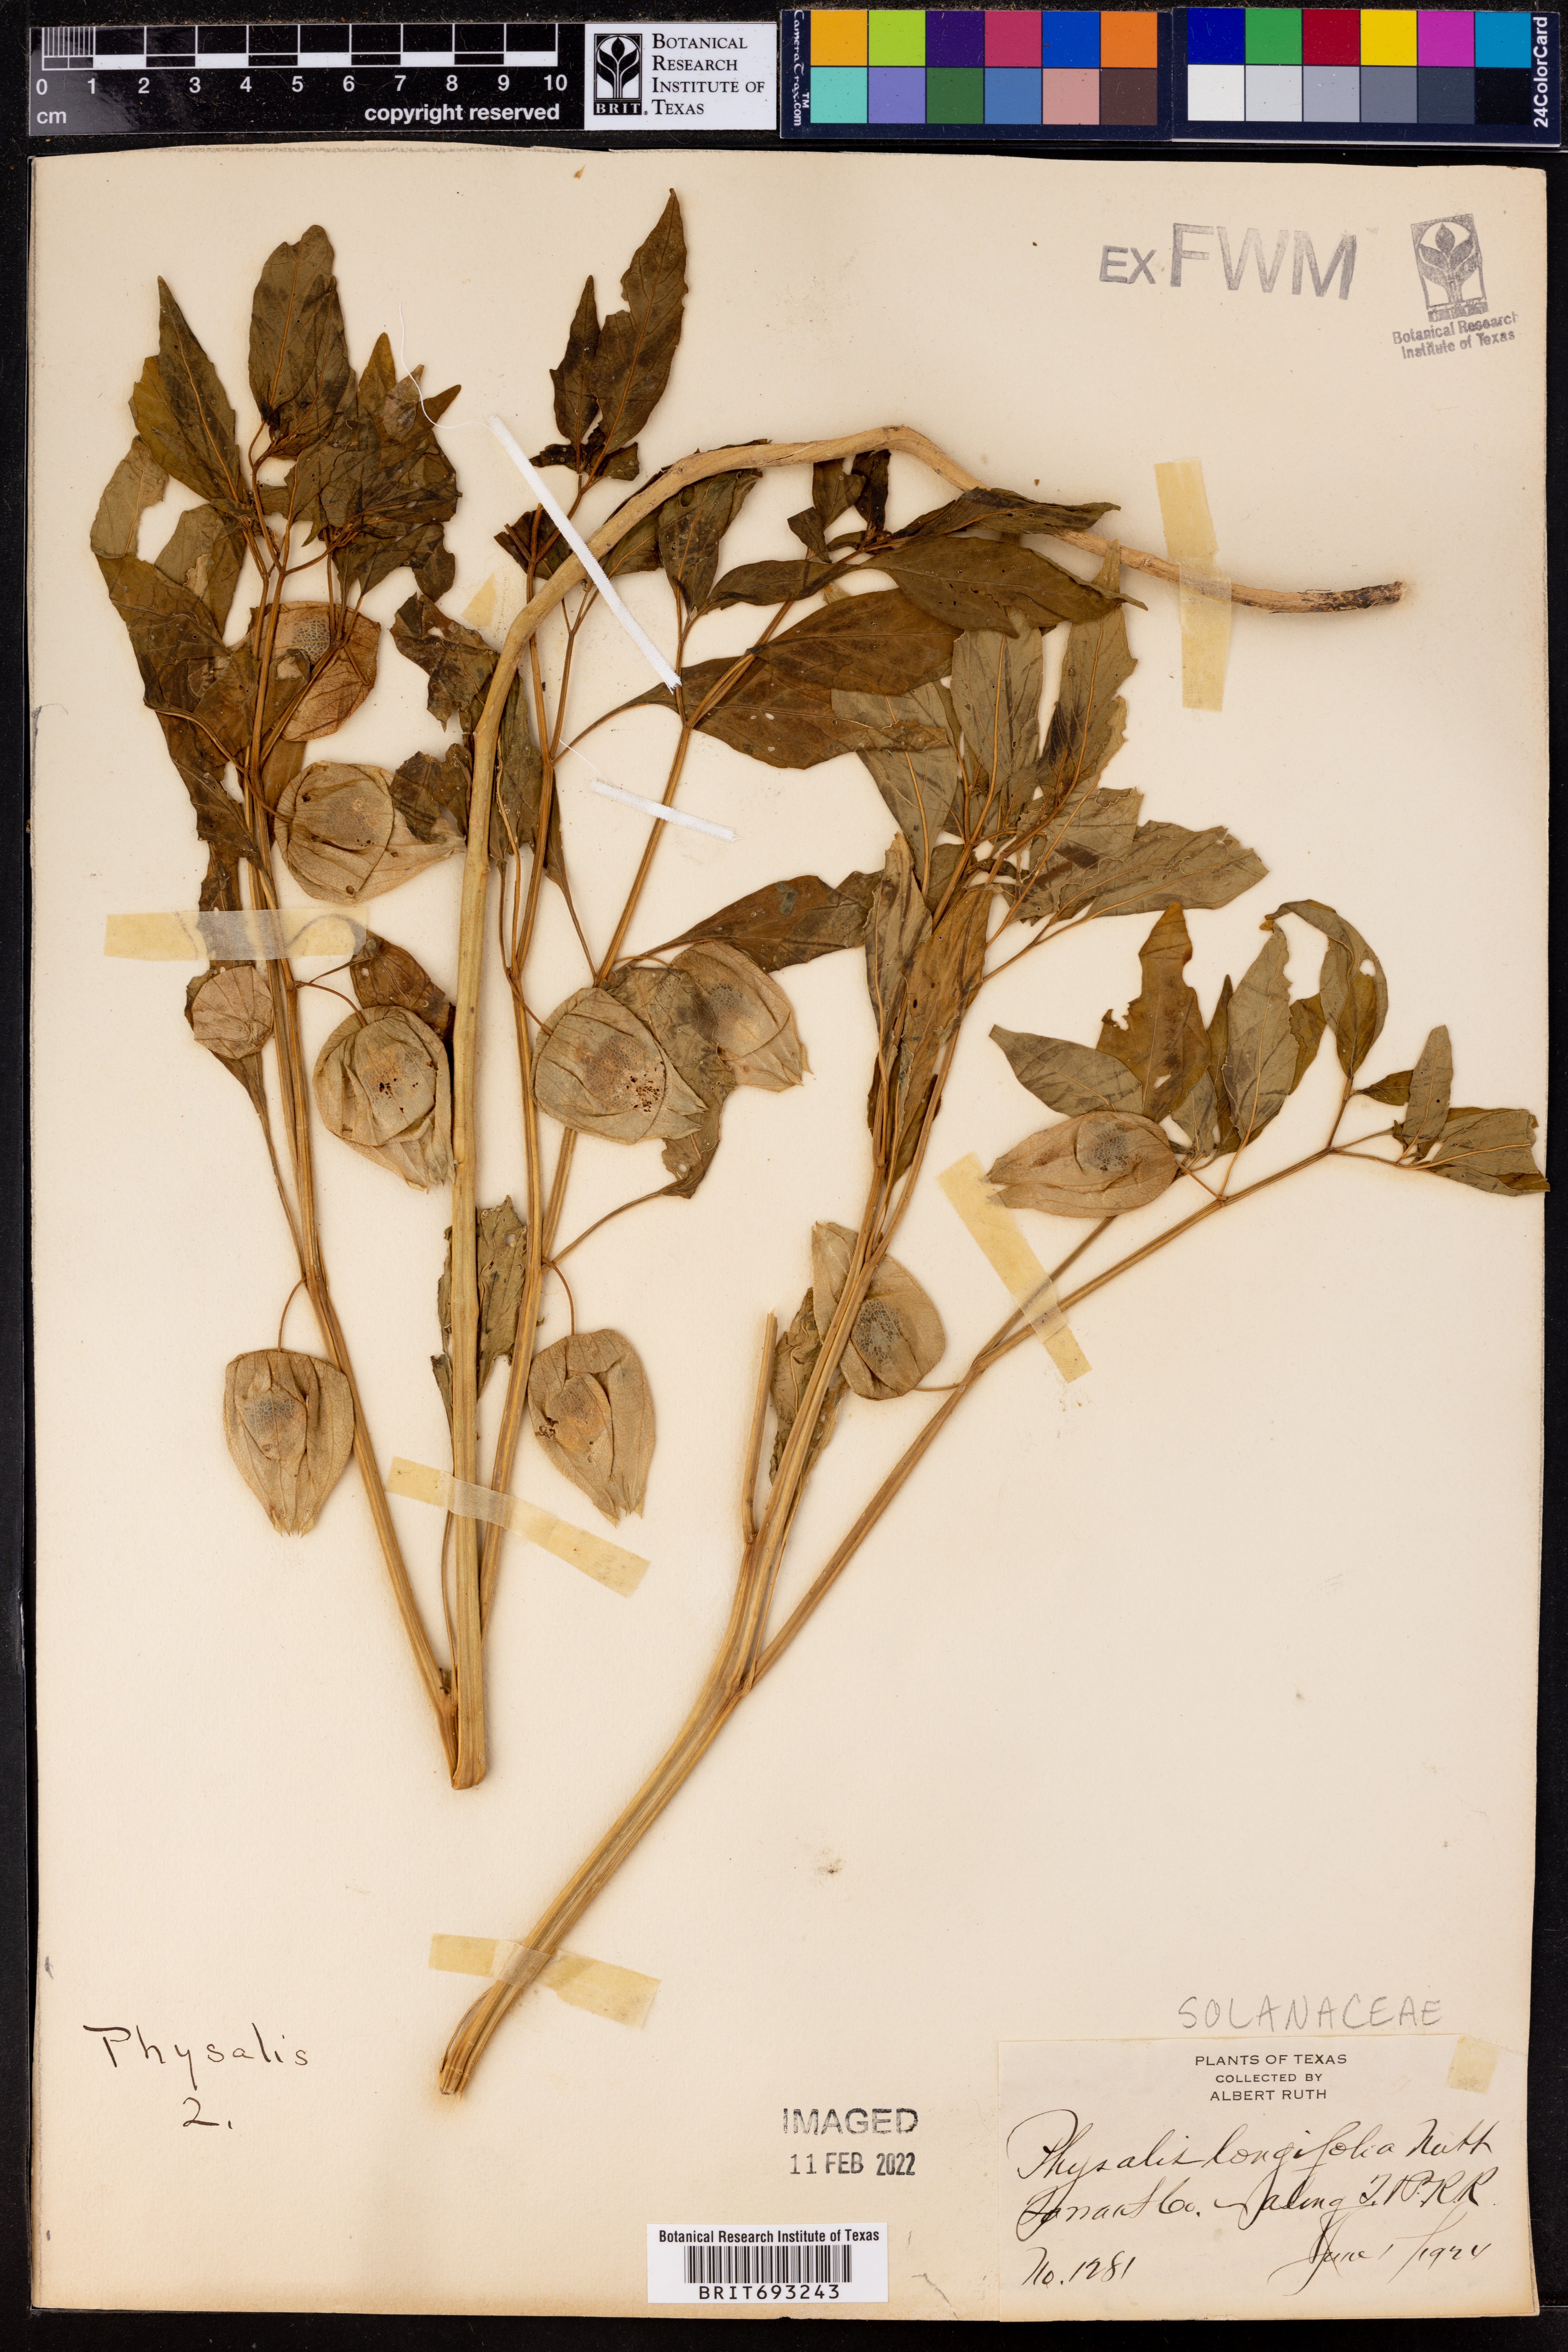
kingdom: Plantae
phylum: Tracheophyta
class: Magnoliopsida
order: Solanales
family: Solanaceae
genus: Physalis
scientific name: Physalis longifolia
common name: Common ground-cherry
